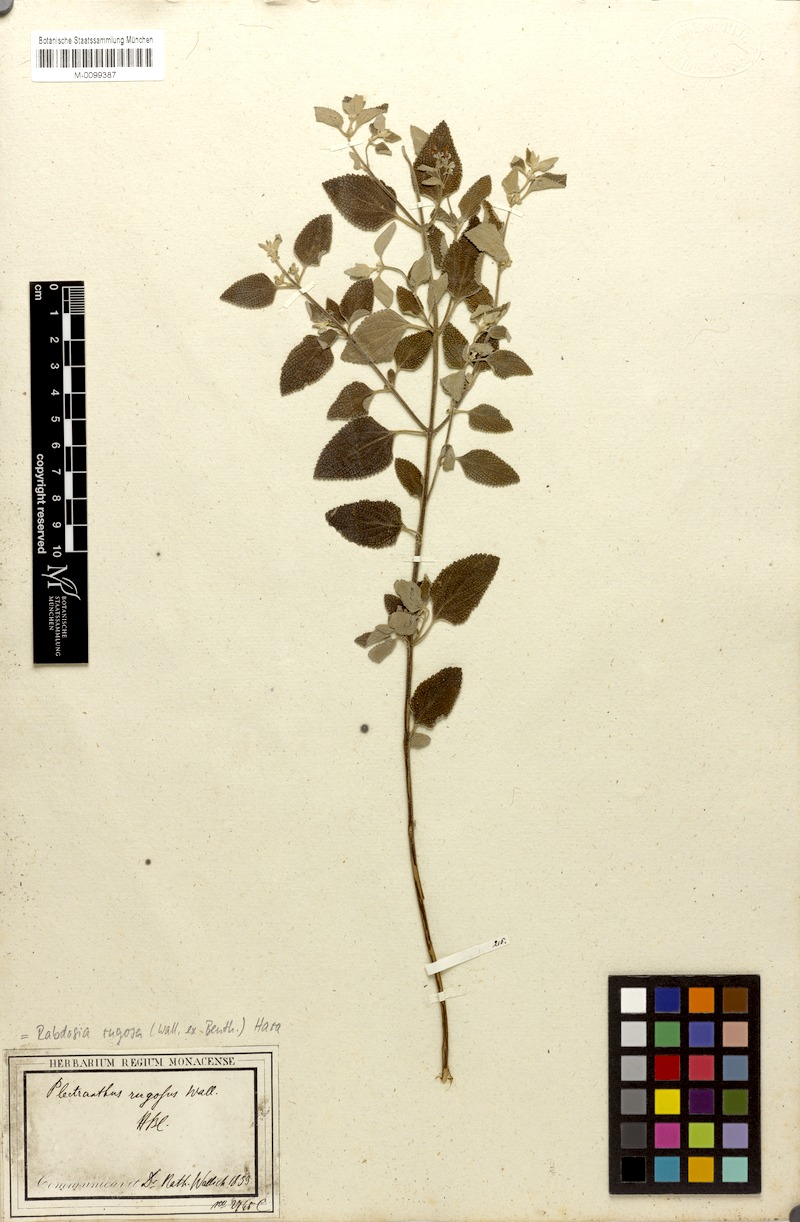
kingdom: Plantae
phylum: Tracheophyta
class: Magnoliopsida
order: Lamiales
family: Lamiaceae
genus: Isodon
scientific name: Isodon rugosus
